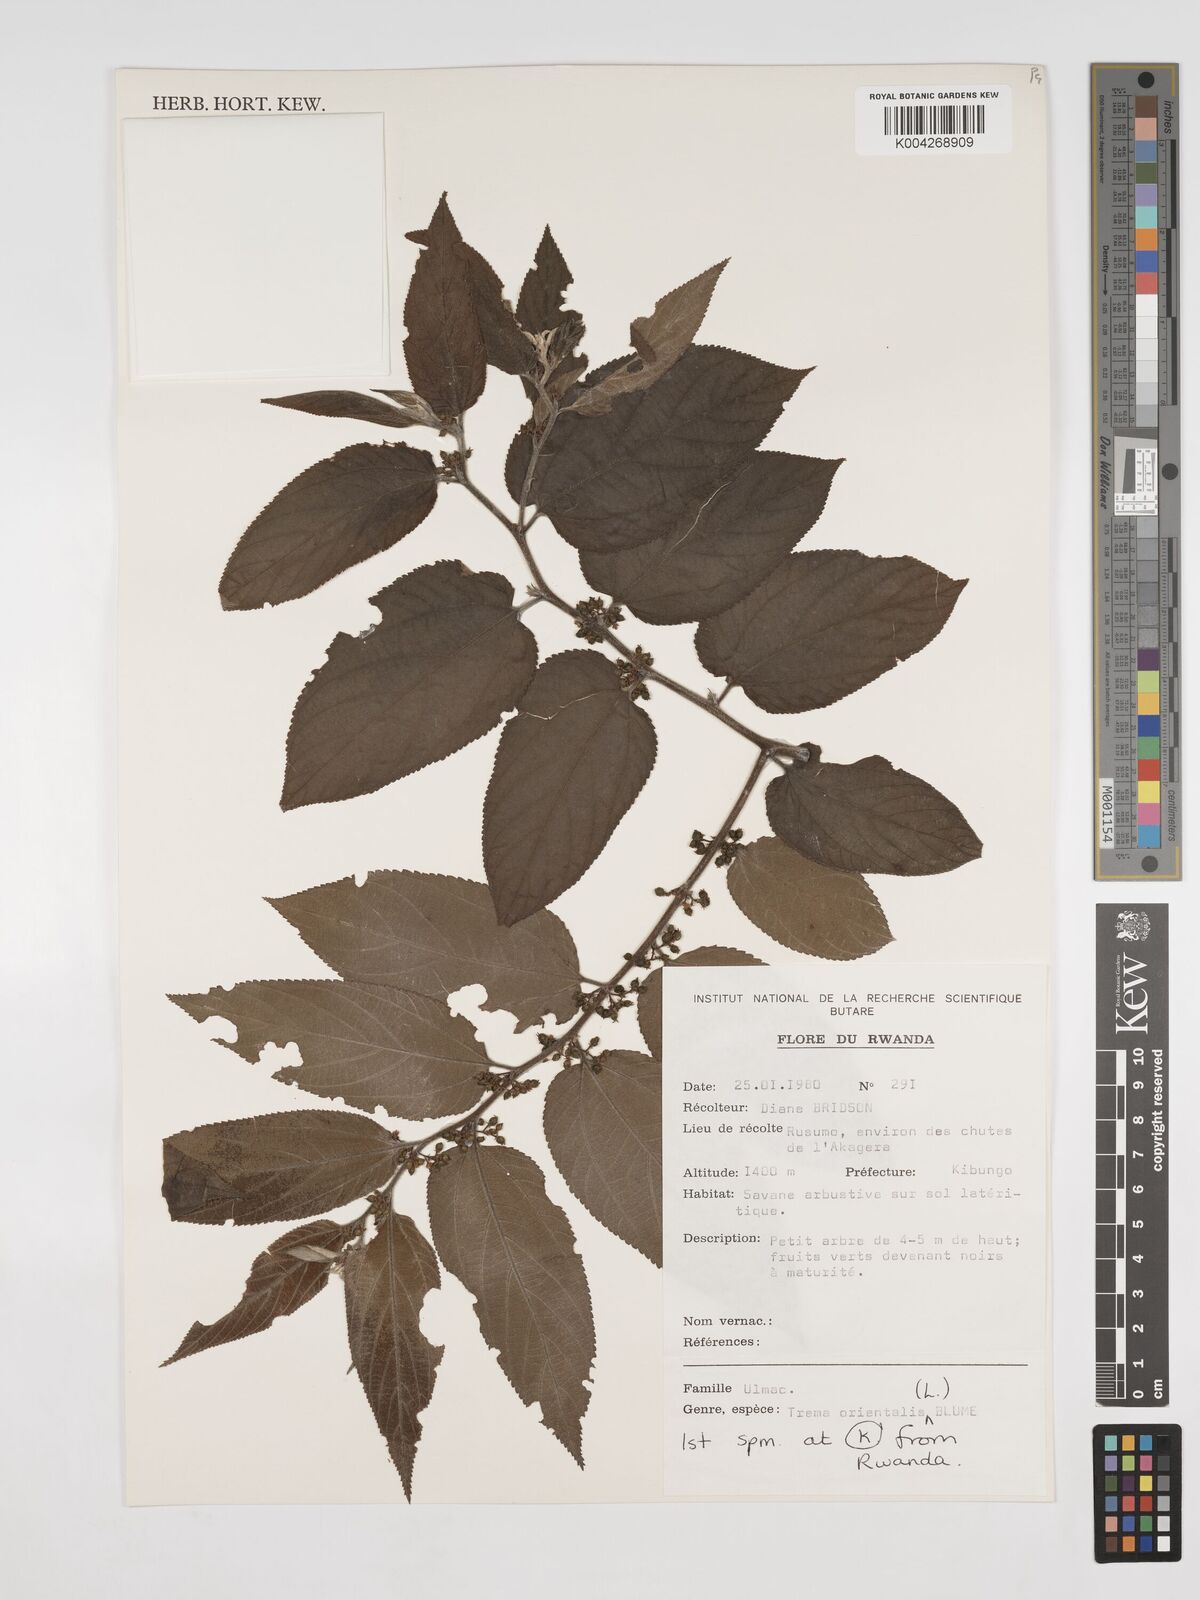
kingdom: Plantae
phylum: Tracheophyta
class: Magnoliopsida
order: Rosales
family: Cannabaceae
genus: Trema
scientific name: Trema orientale
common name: Indian charcoal tree
